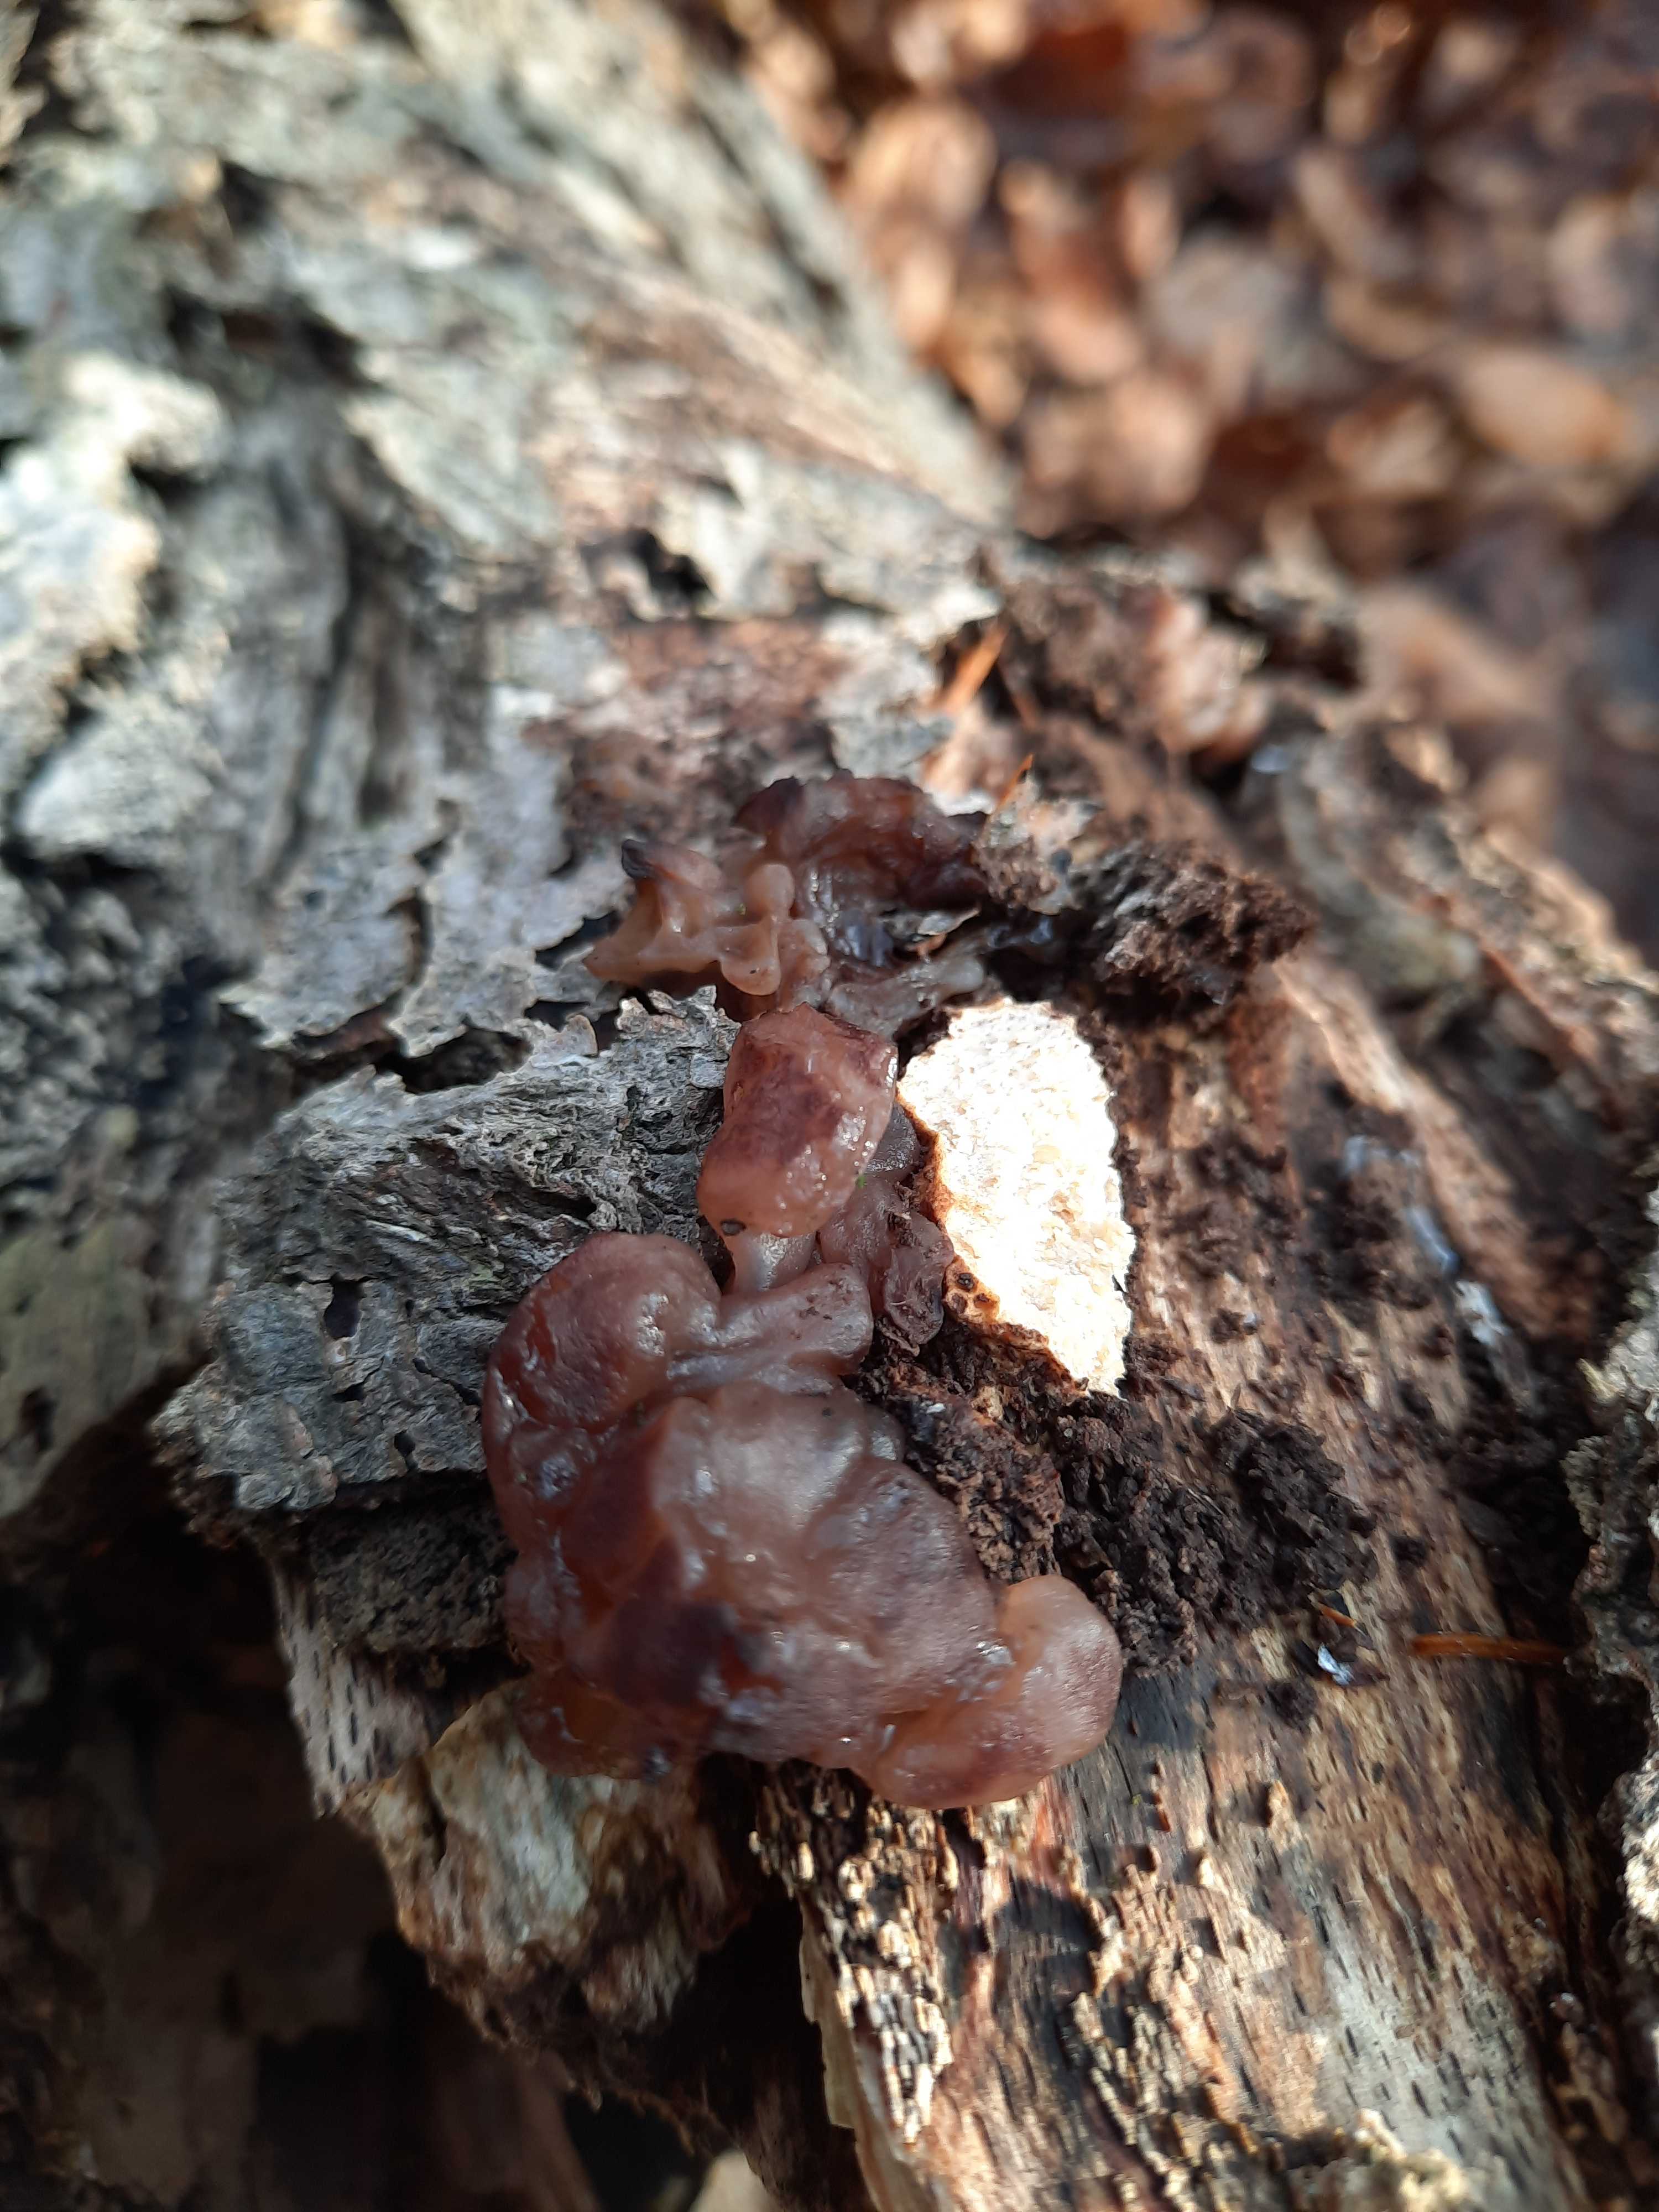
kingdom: Fungi
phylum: Ascomycota
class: Leotiomycetes
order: Helotiales
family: Gelatinodiscaceae
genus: Ascotremella
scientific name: Ascotremella faginea
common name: hjerne-bævreskive
